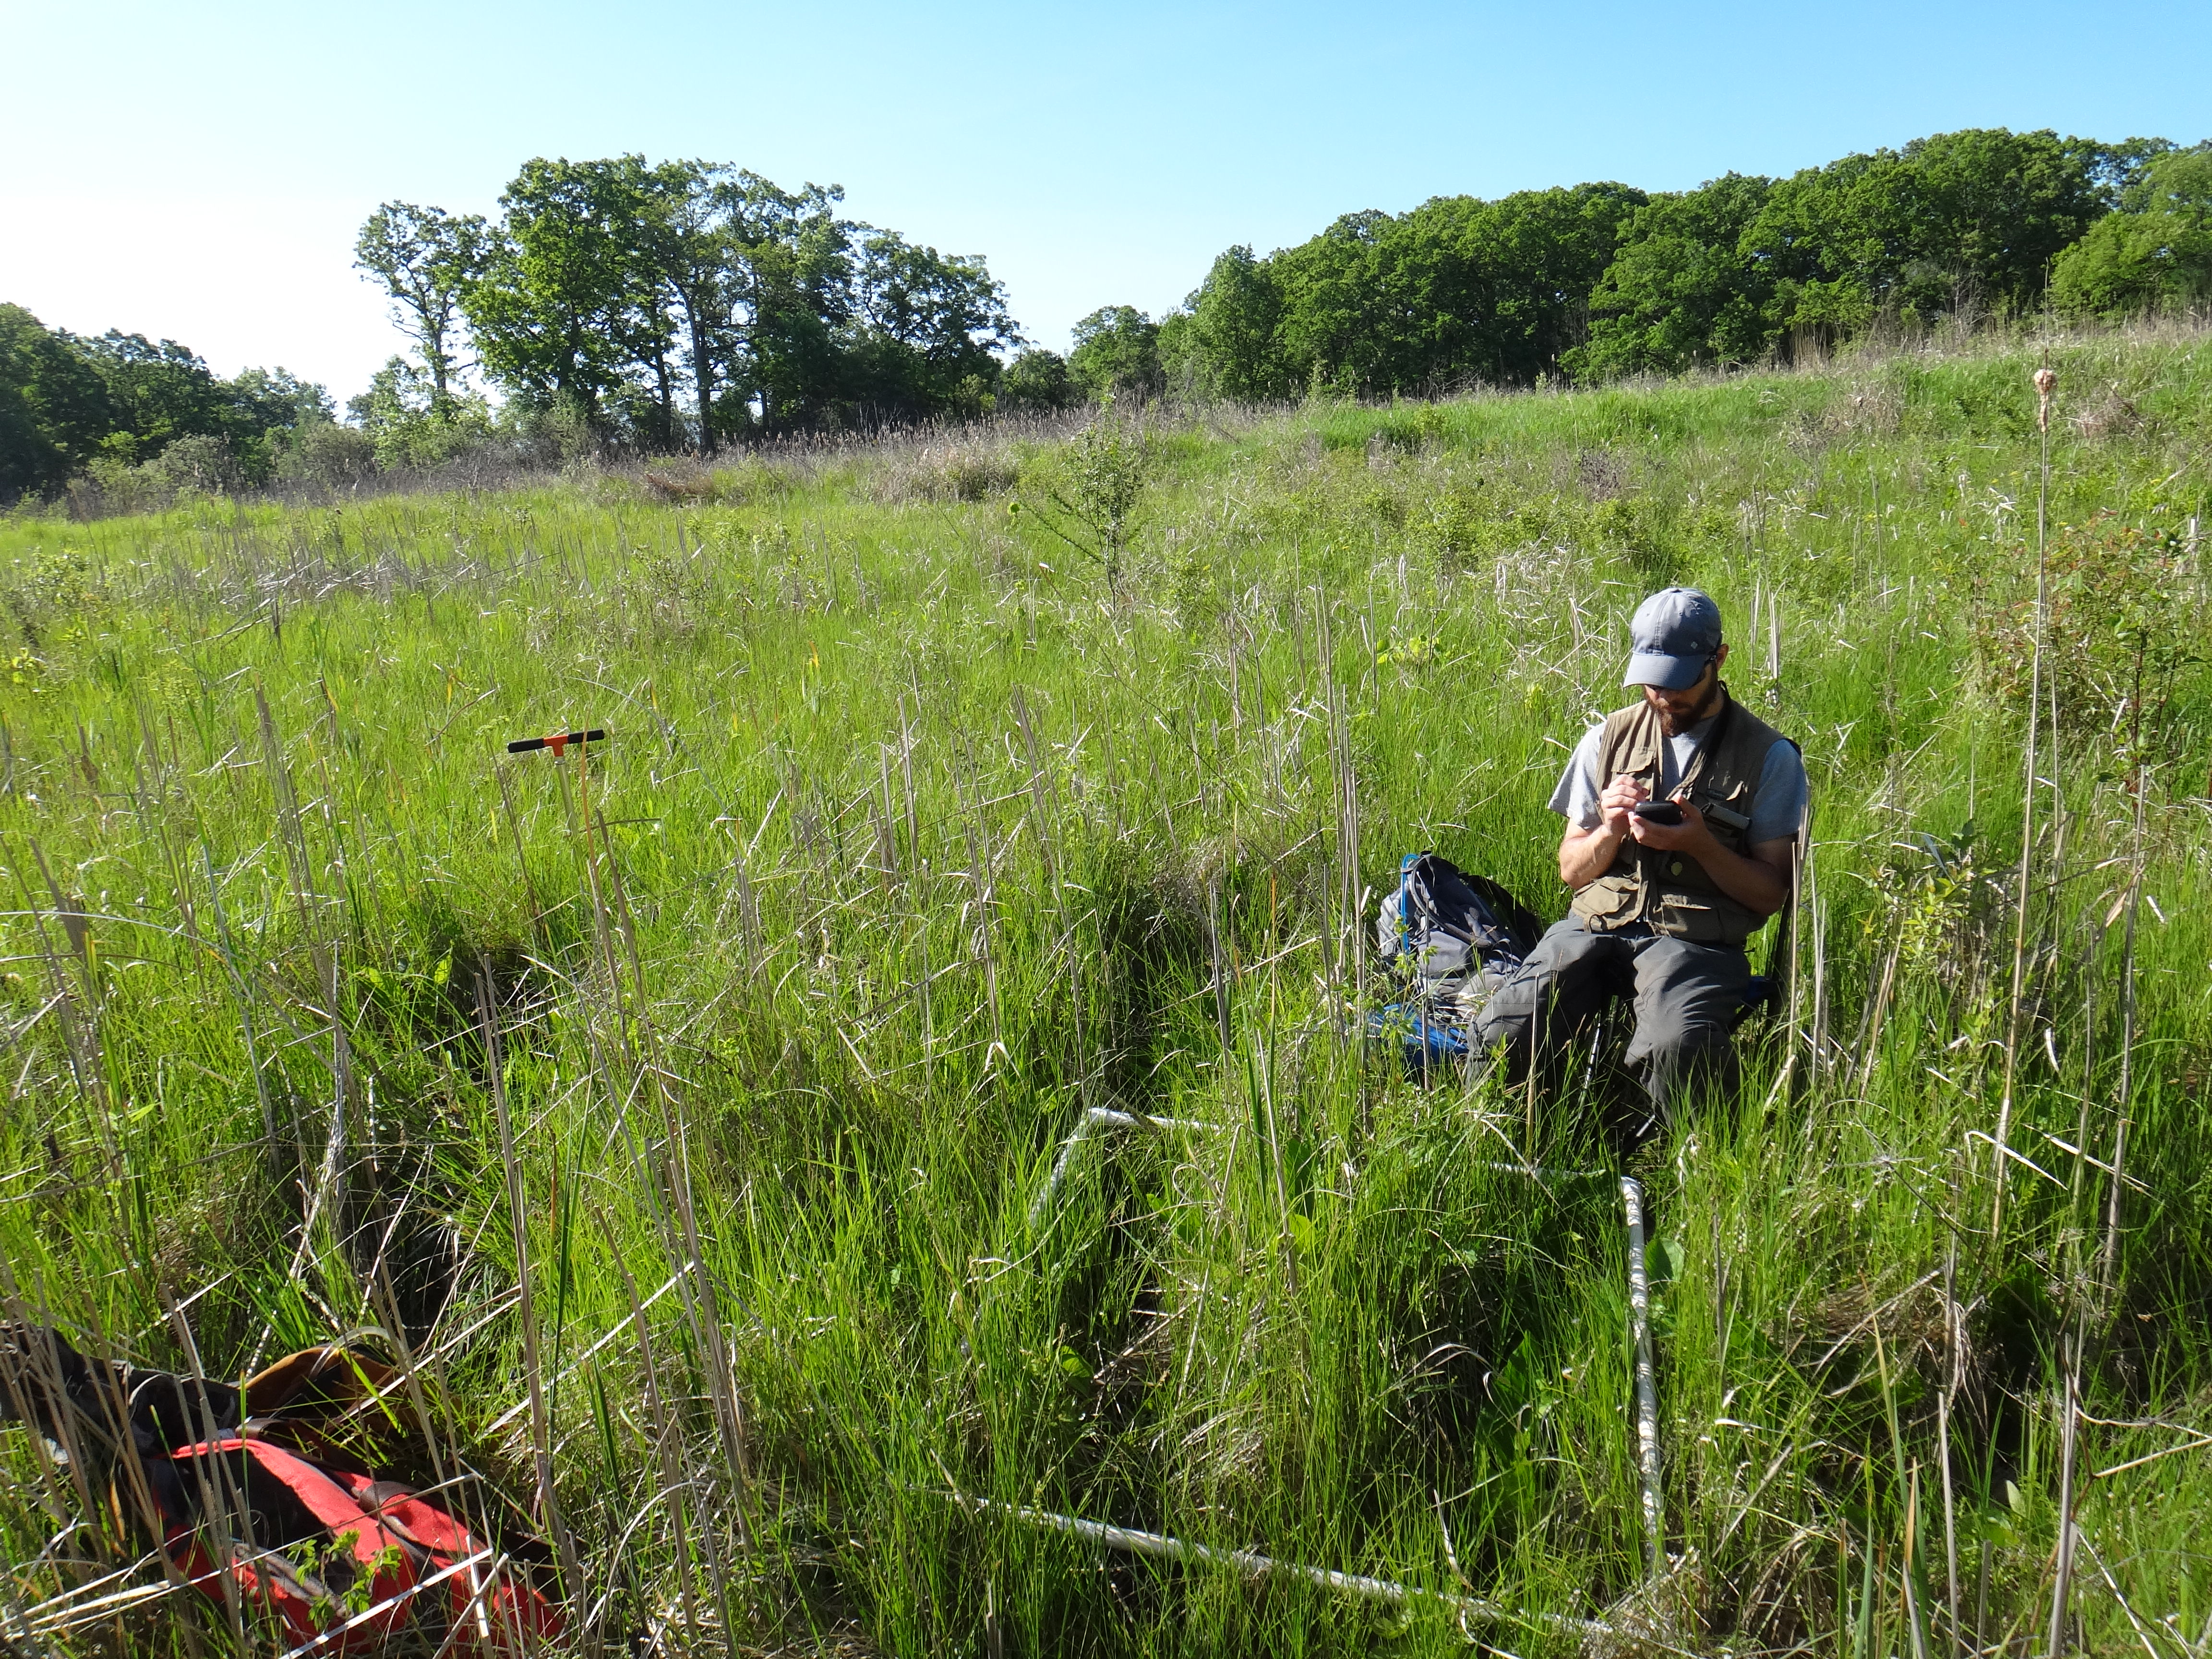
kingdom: Plantae
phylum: Tracheophyta
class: Magnoliopsida
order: Asterales
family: Asteraceae
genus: Symphyotrichum
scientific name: Symphyotrichum lanceolatum
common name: Panicled aster
